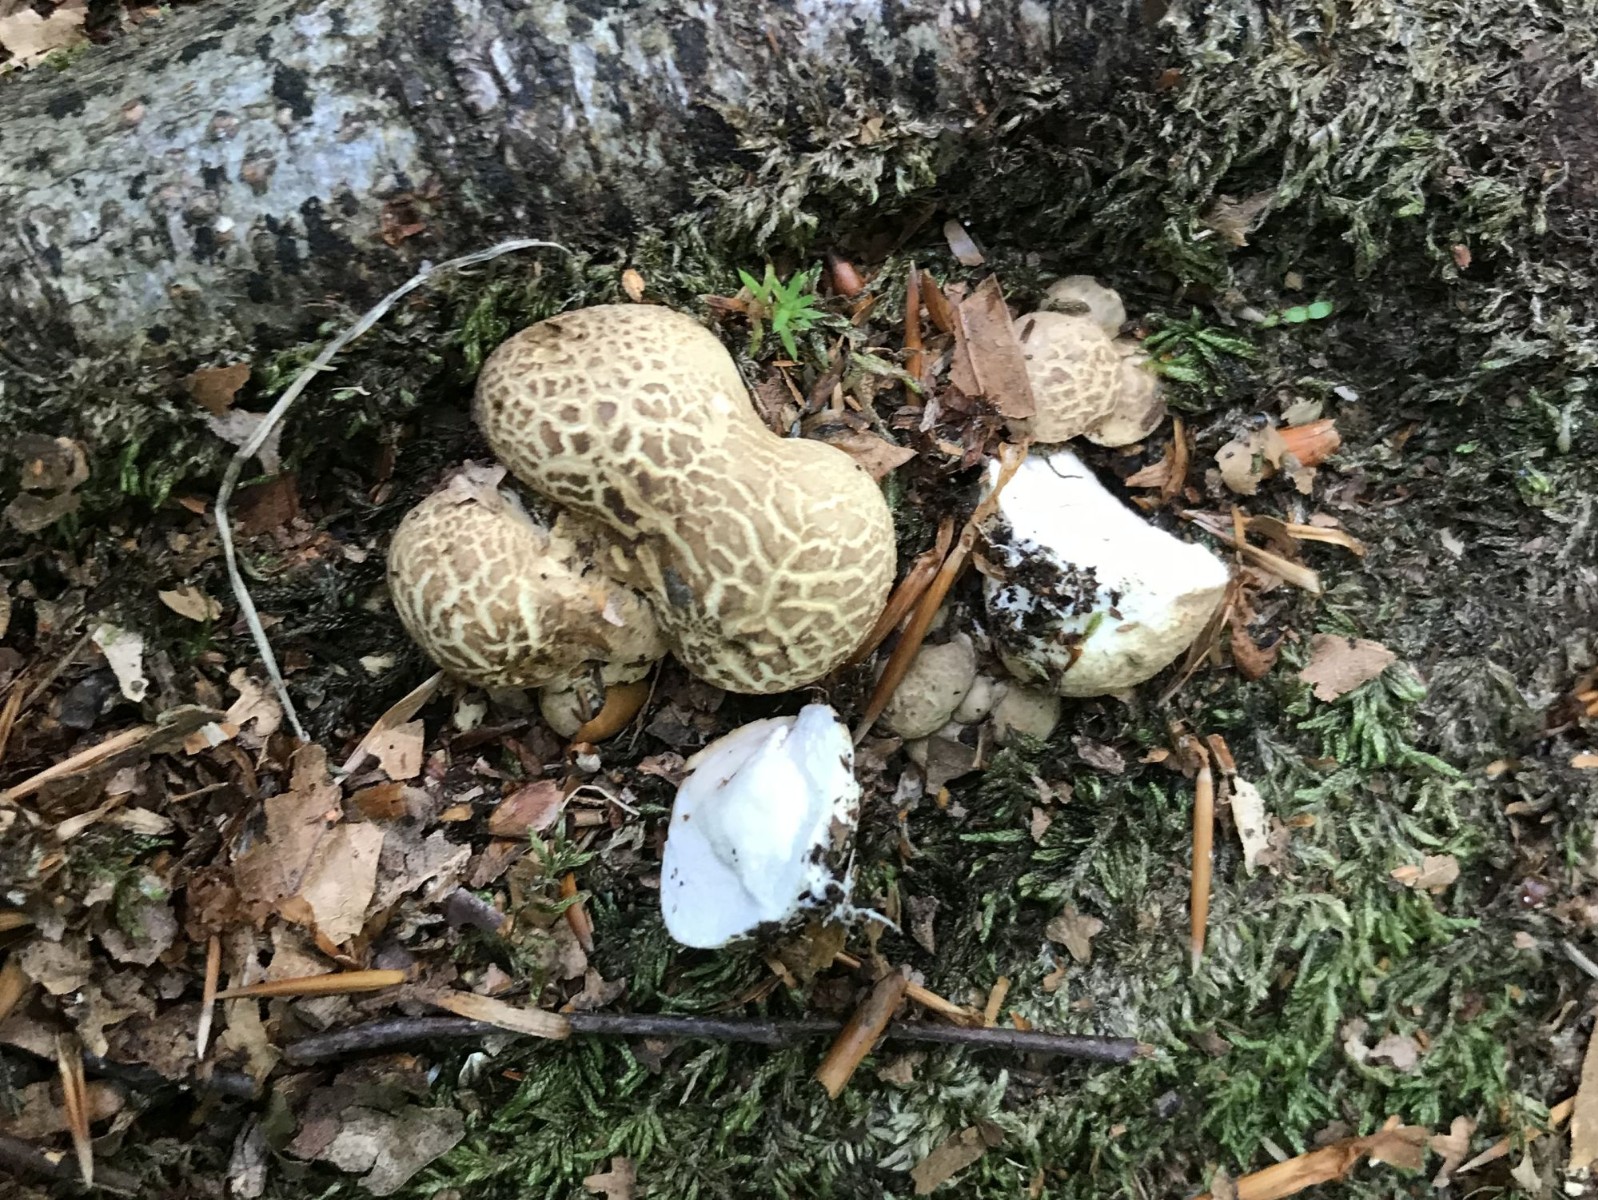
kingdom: Fungi
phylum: Basidiomycota
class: Agaricomycetes
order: Boletales
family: Sclerodermataceae
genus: Scleroderma
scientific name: Scleroderma citrinum
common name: almindelig bruskbold
